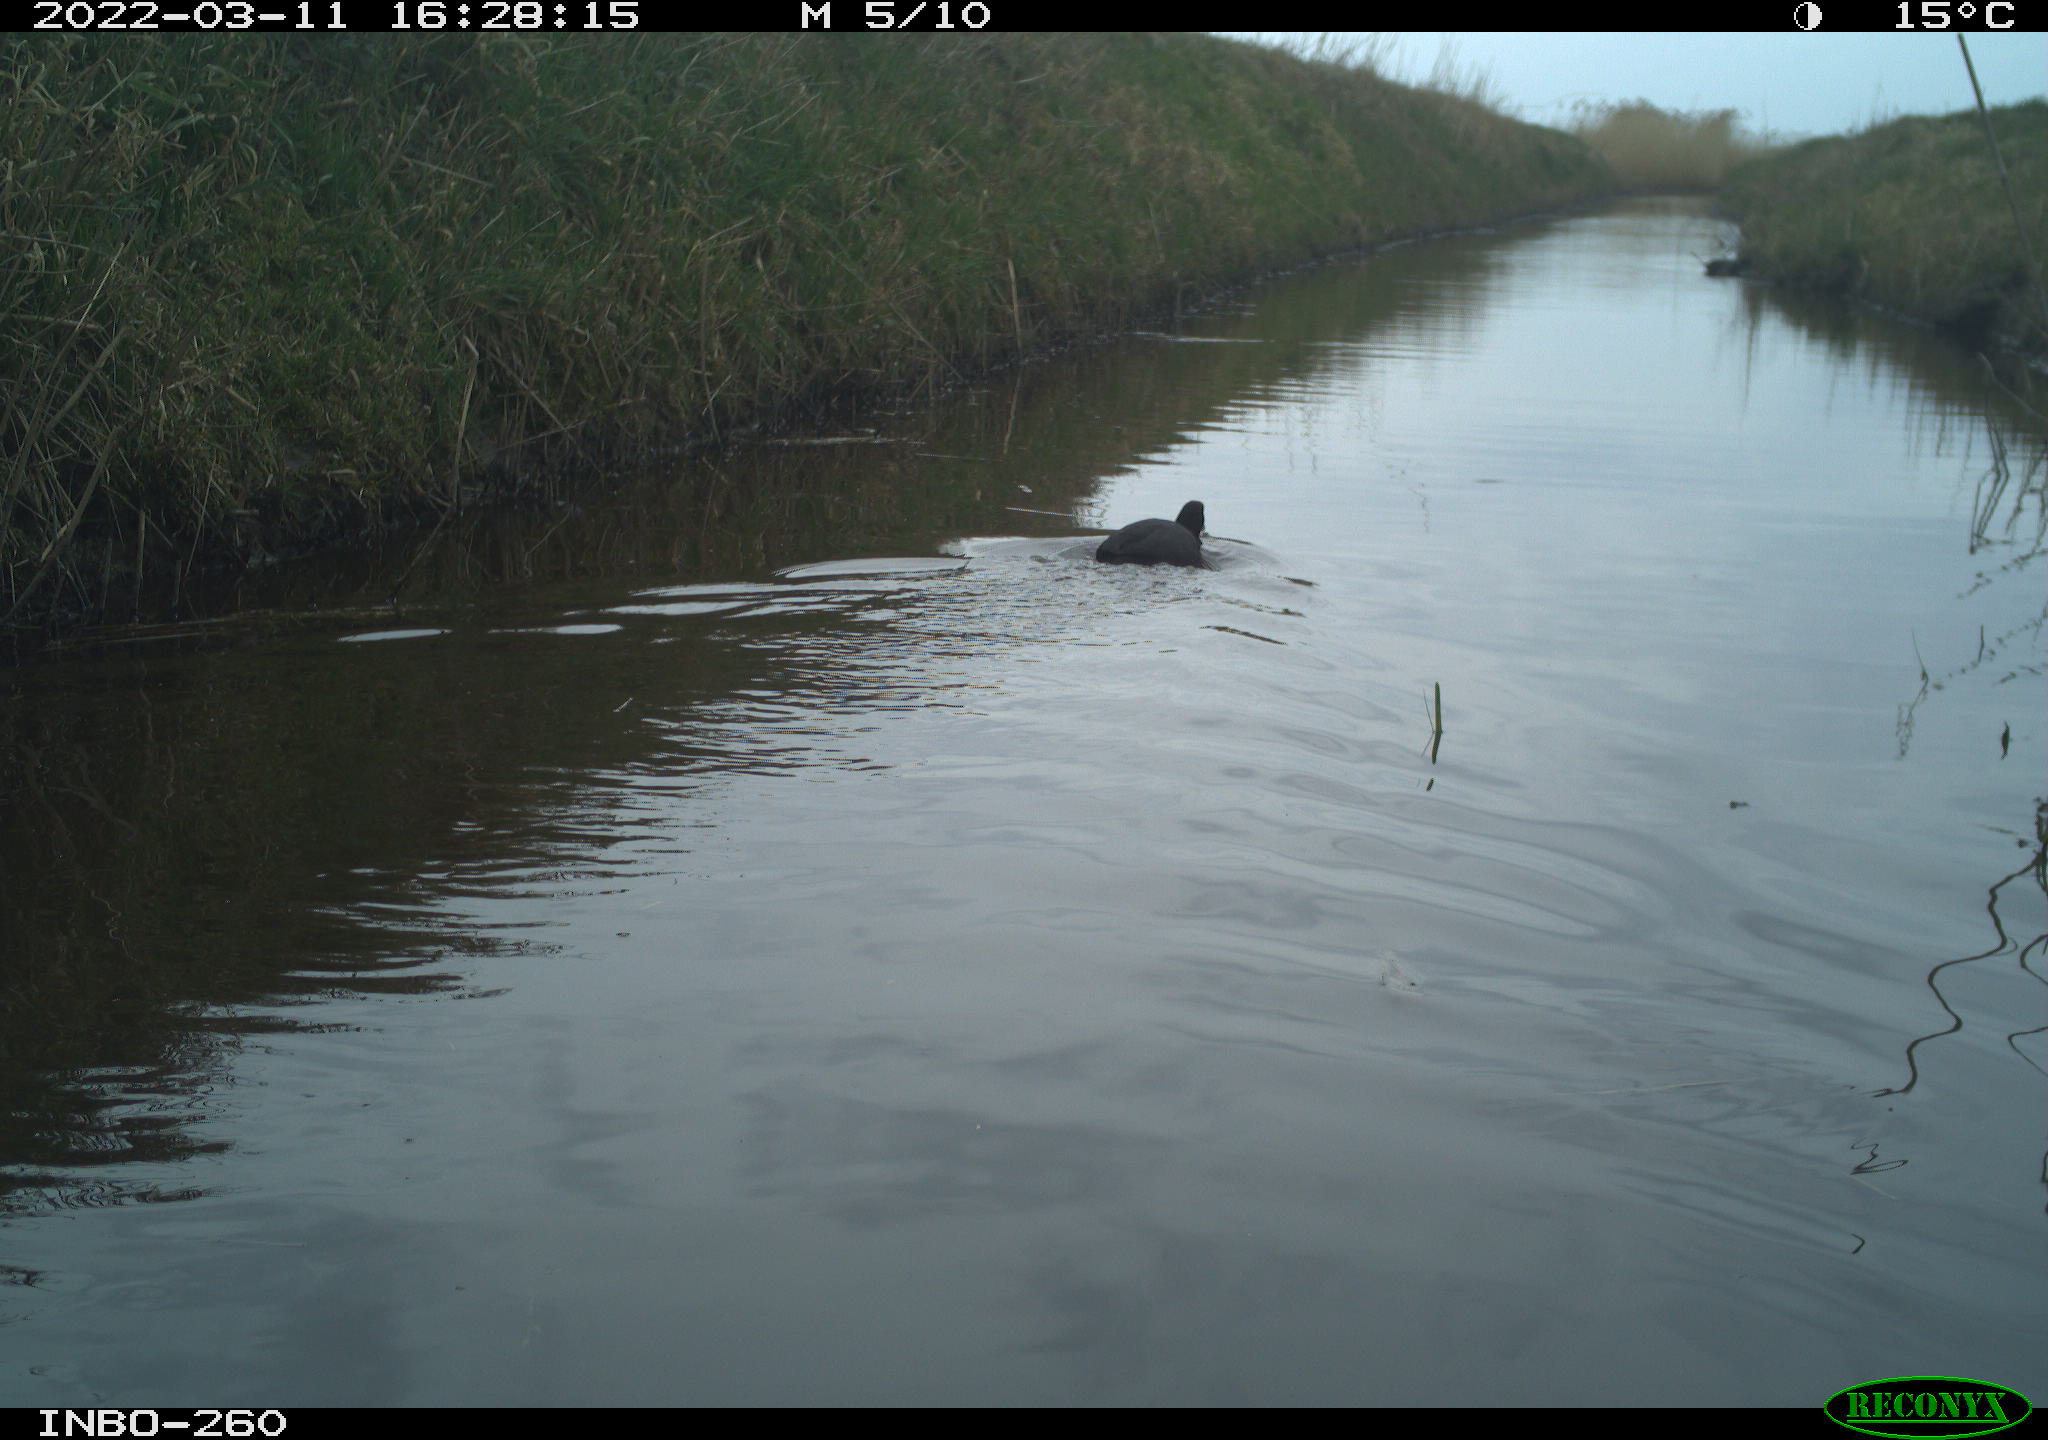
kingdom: Animalia
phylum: Chordata
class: Aves
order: Gruiformes
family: Rallidae
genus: Fulica
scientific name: Fulica atra
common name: Eurasian coot
